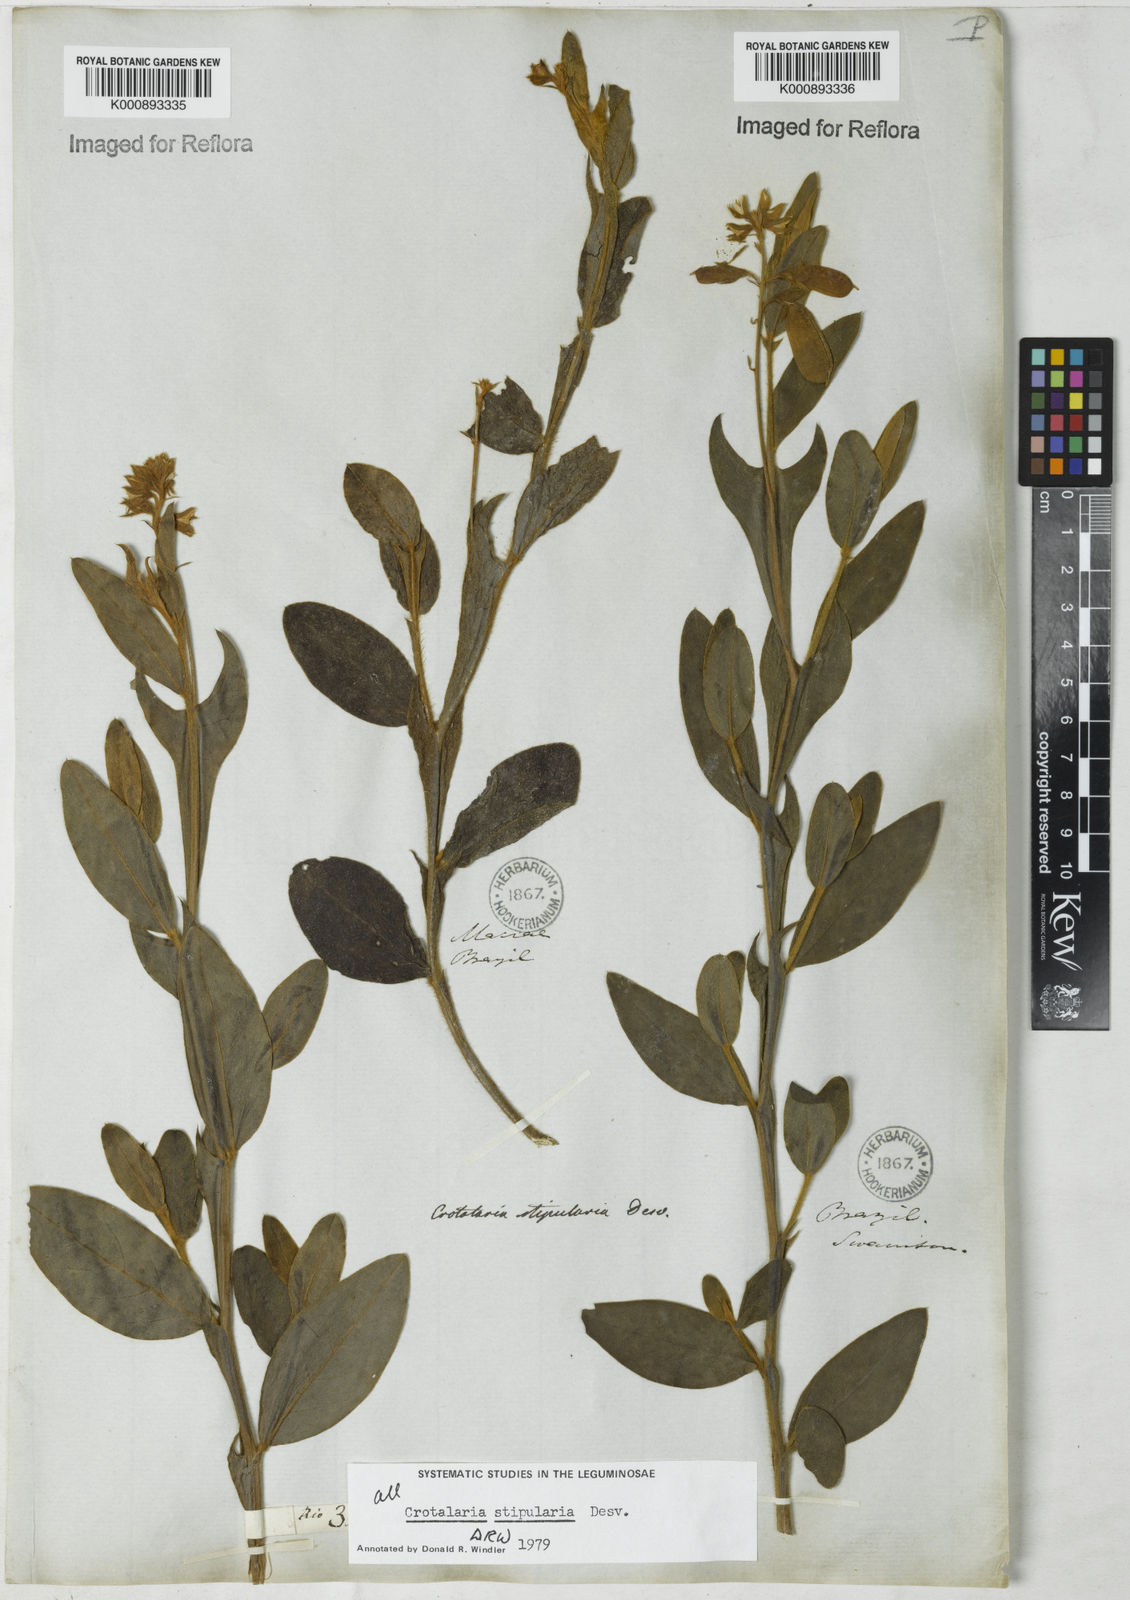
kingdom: Plantae
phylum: Tracheophyta
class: Magnoliopsida
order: Fabales
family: Fabaceae
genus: Crotalaria
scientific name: Crotalaria stipularia
